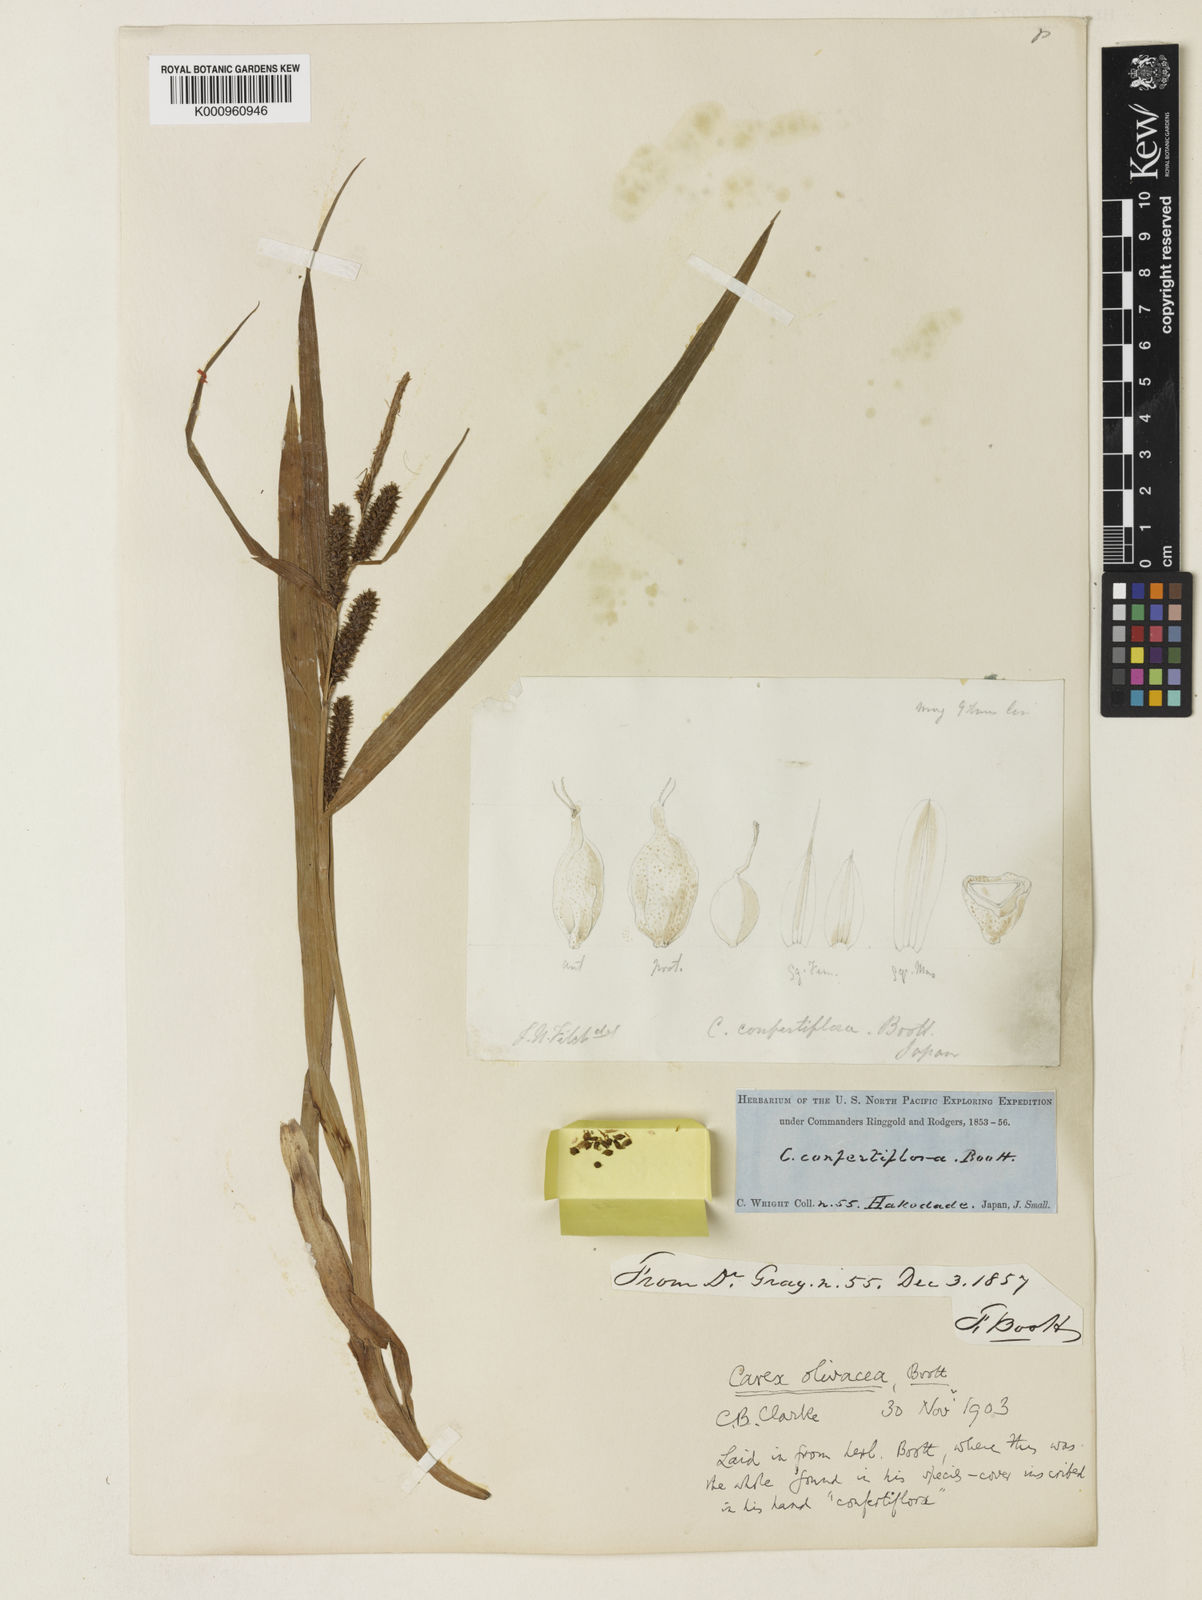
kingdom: Plantae
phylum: Tracheophyta
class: Liliopsida
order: Poales
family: Cyperaceae
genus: Carex
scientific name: Carex olivacea
